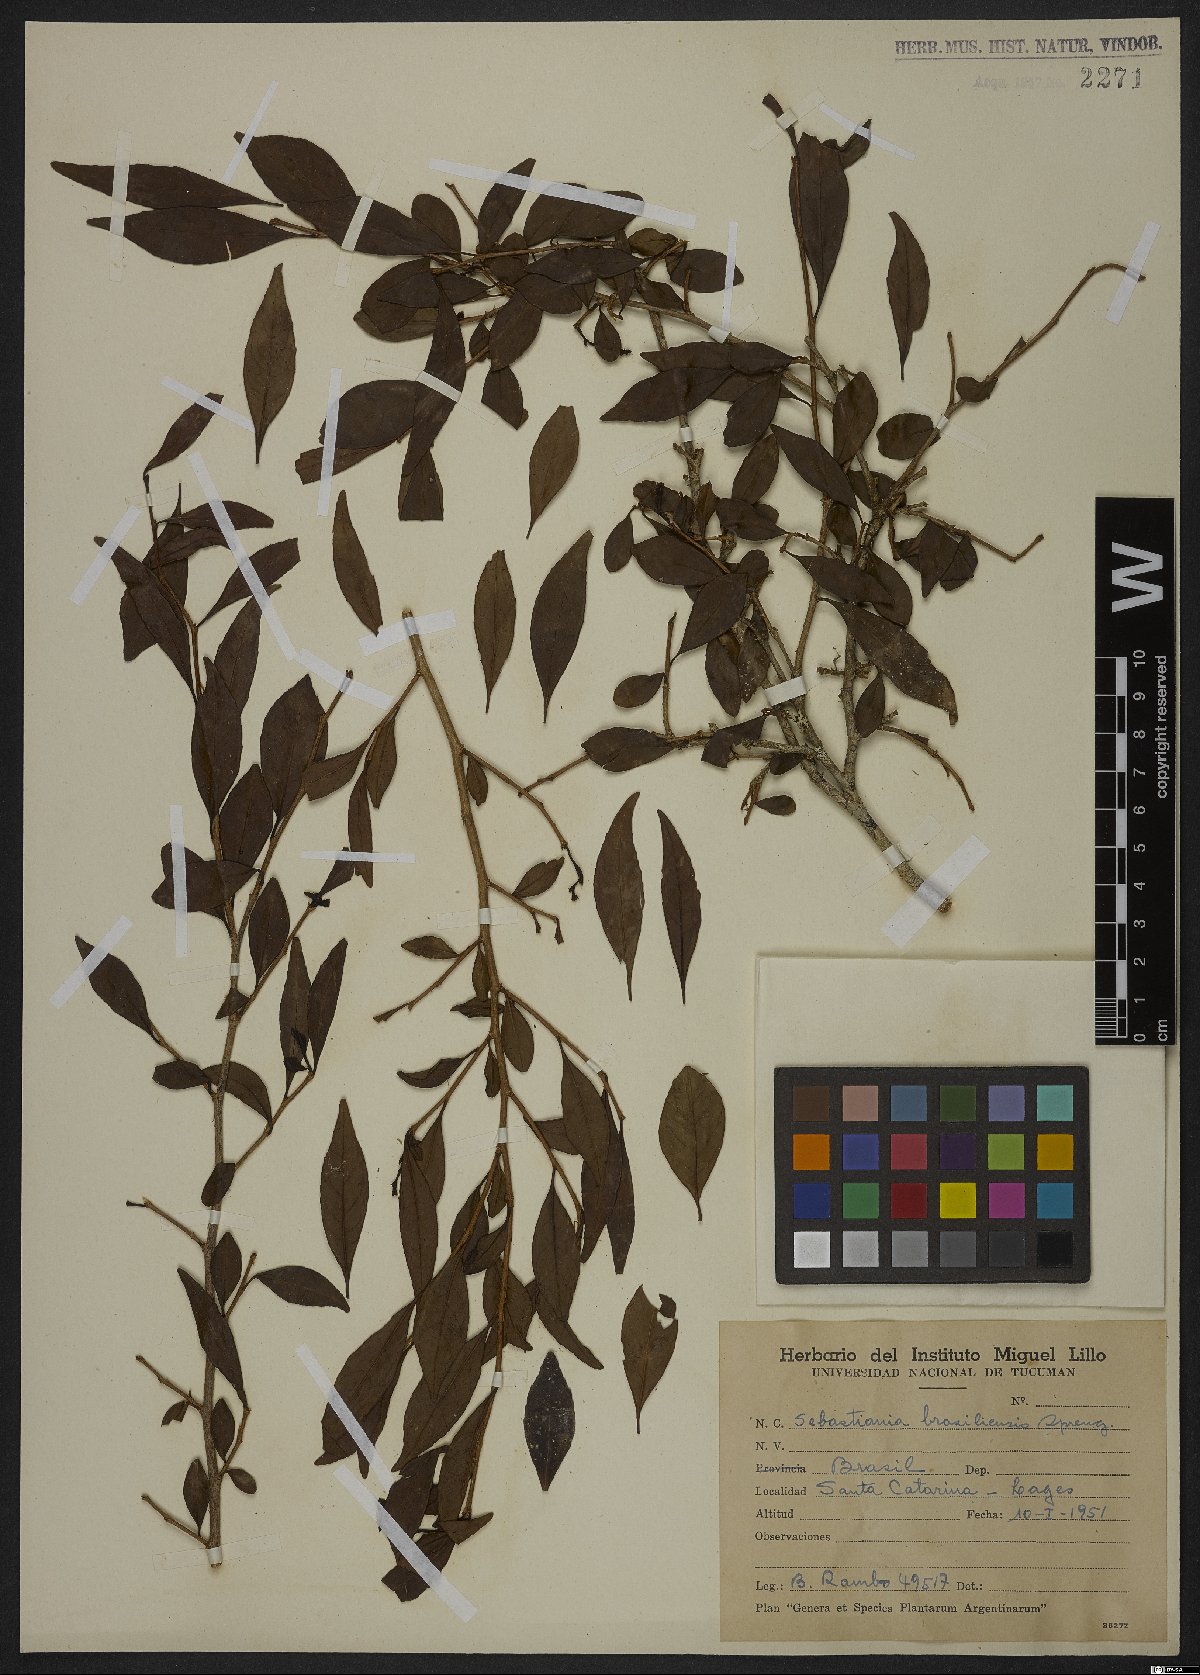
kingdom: Plantae
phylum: Tracheophyta
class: Magnoliopsida
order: Malpighiales
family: Euphorbiaceae
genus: Sebastiania
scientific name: Sebastiania brasiliensis
